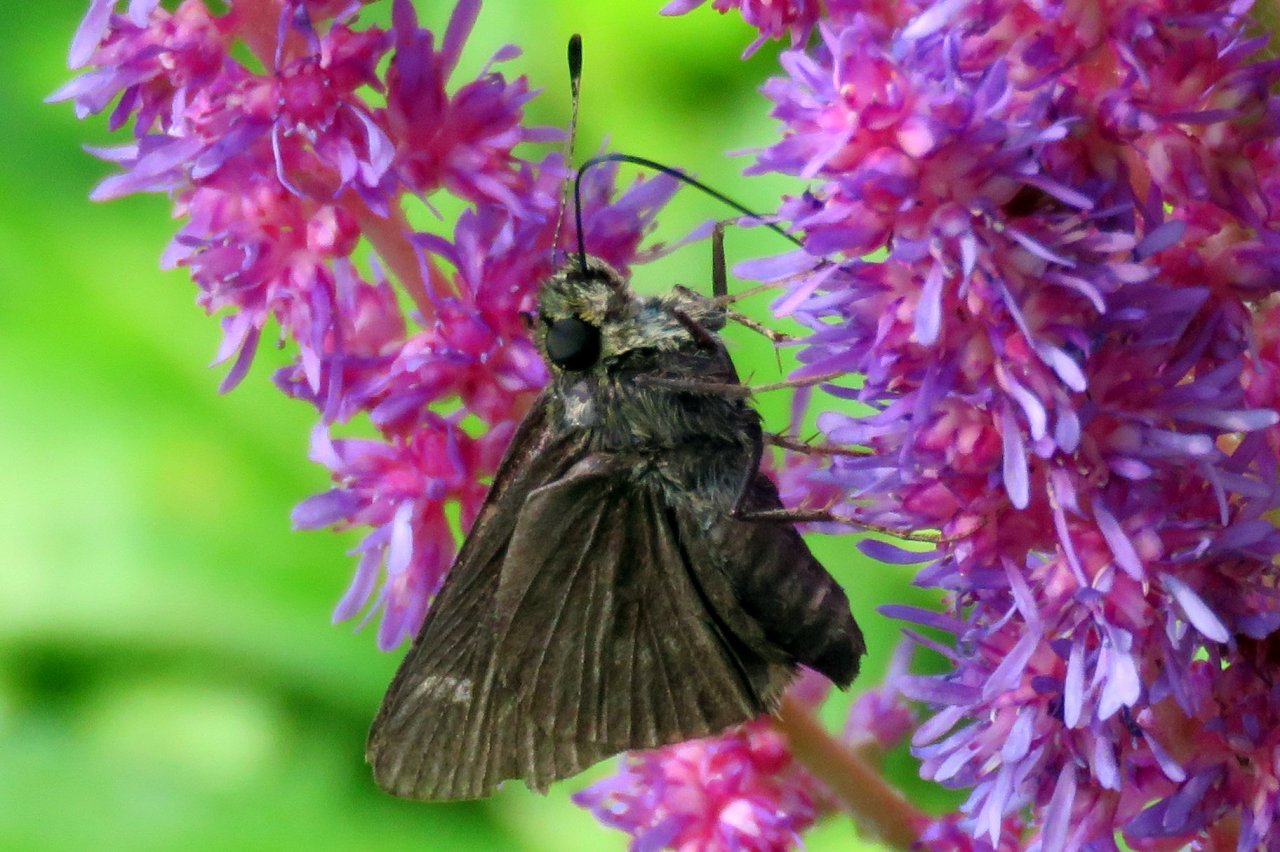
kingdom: Animalia
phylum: Arthropoda
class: Insecta
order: Lepidoptera
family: Hesperiidae
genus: Vernia
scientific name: Vernia verna
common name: Little Glassywing
